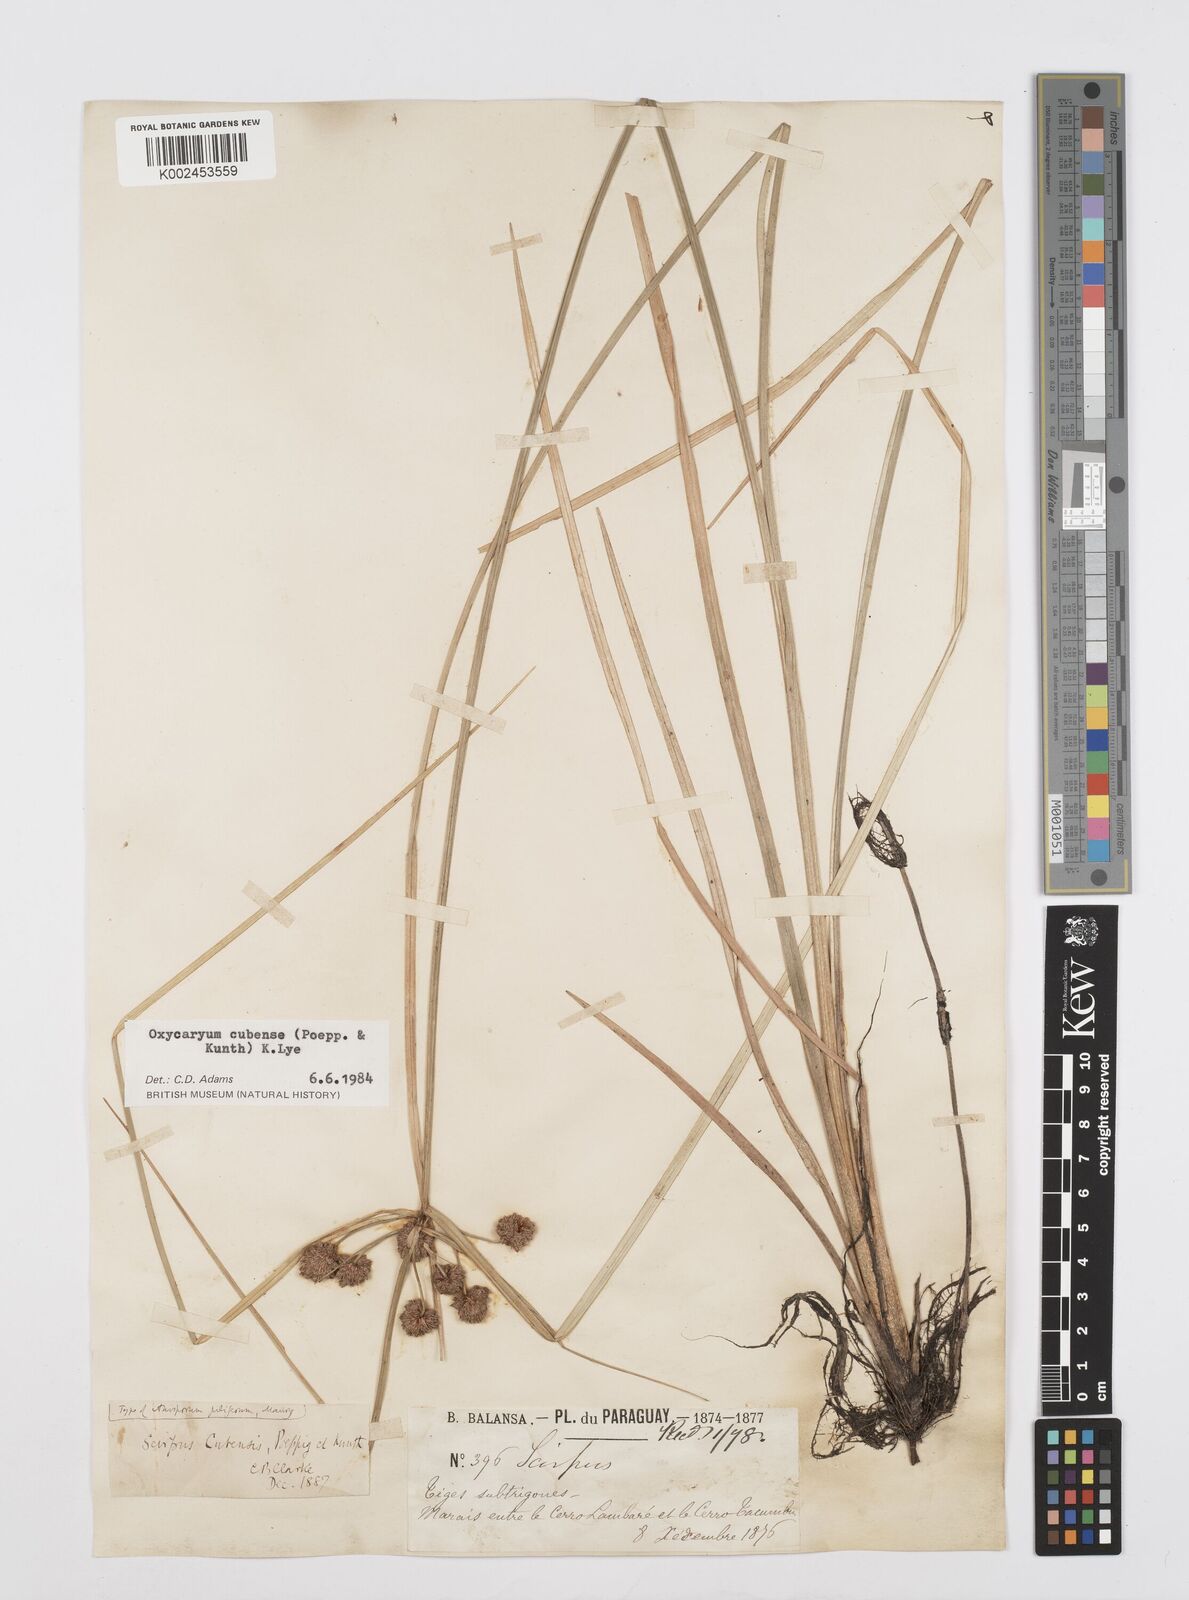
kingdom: Plantae
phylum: Tracheophyta
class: Liliopsida
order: Poales
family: Cyperaceae
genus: Cyperus
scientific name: Cyperus elegans
